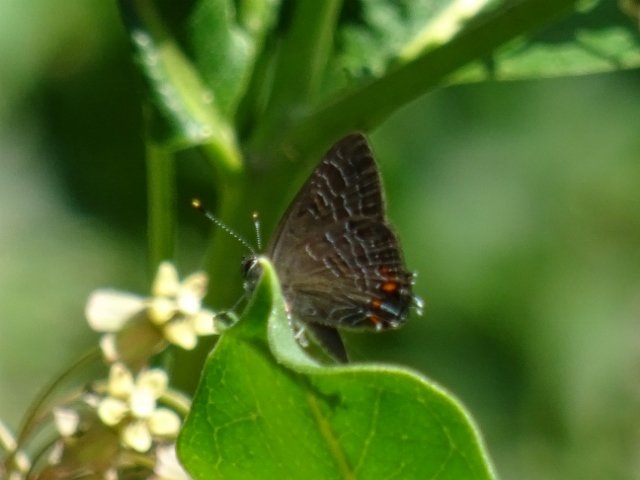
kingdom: Animalia
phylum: Arthropoda
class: Insecta
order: Lepidoptera
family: Lycaenidae
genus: Satyrium
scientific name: Satyrium liparops
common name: Striped Hairstreak
